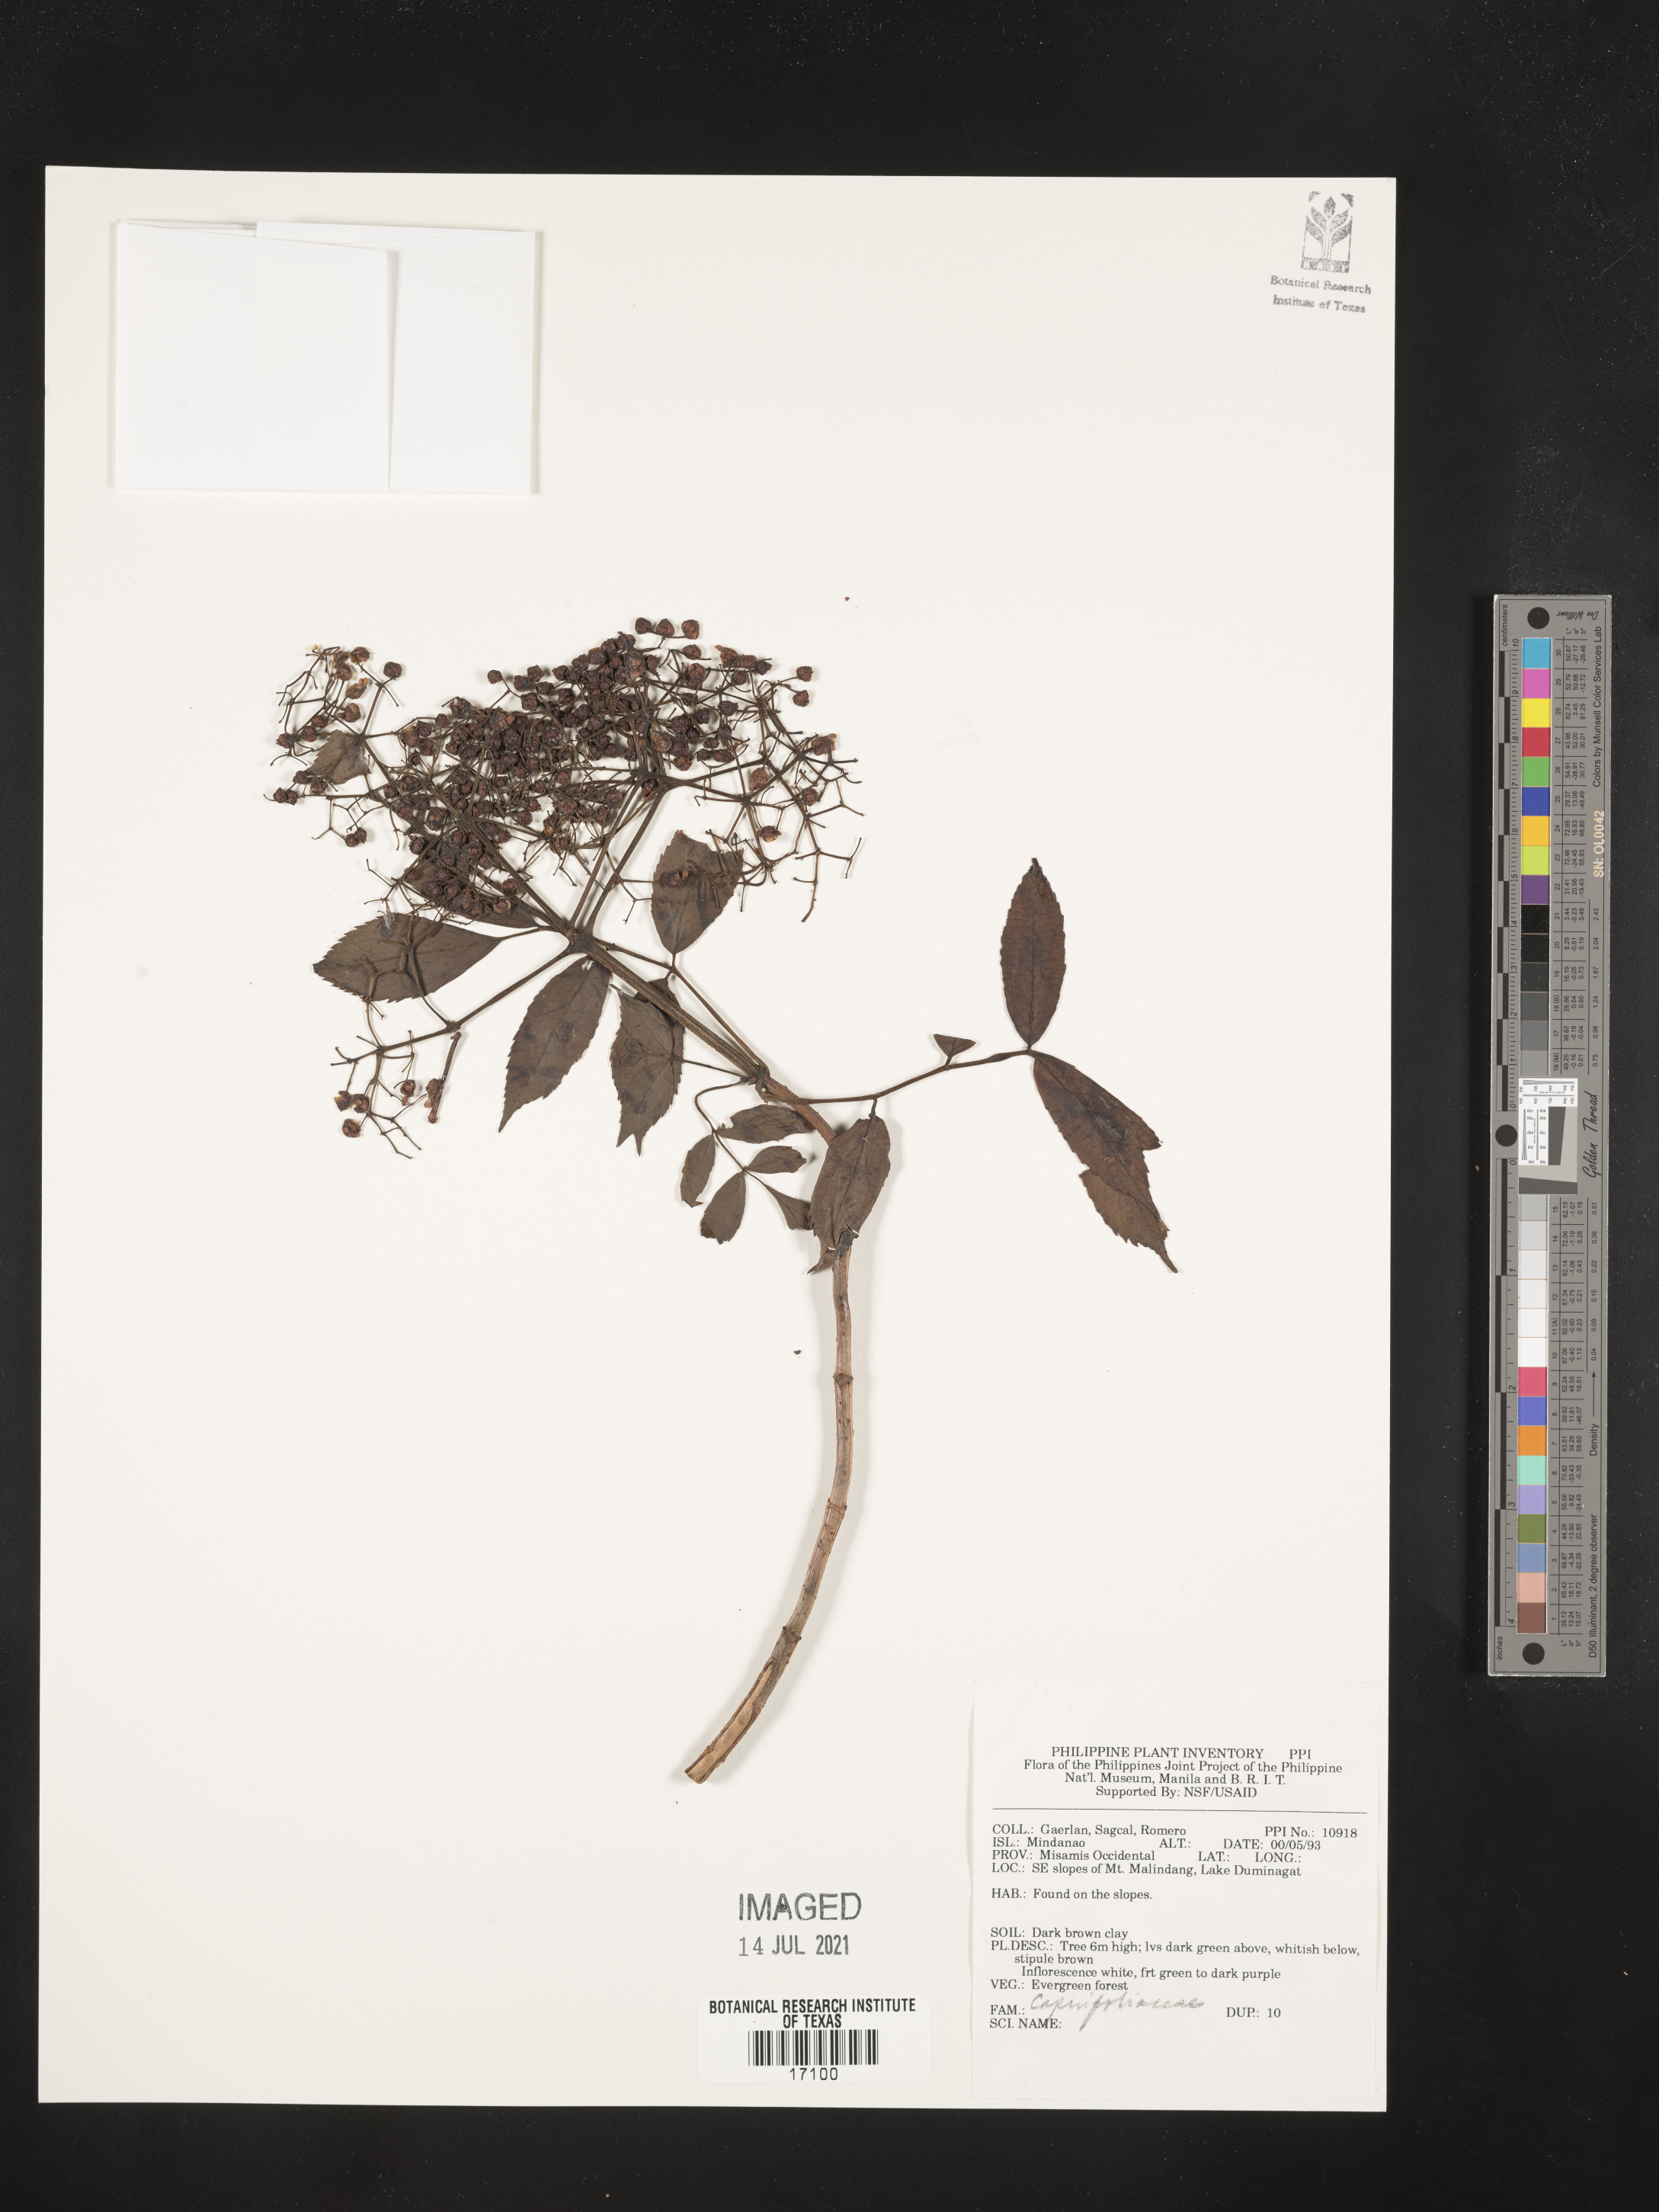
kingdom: Plantae
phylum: Tracheophyta
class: Magnoliopsida
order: Dipsacales
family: Caprifoliaceae
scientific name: Caprifoliaceae
